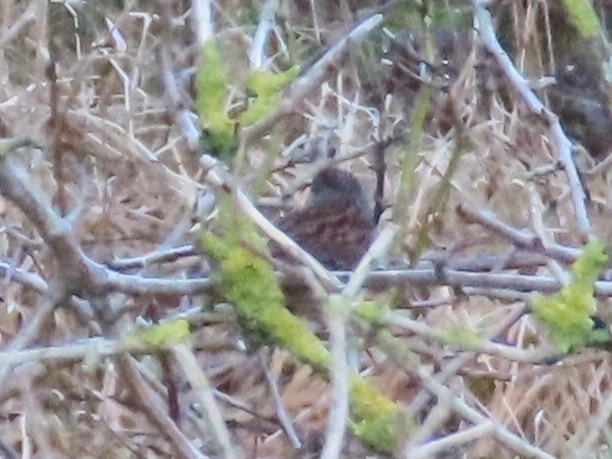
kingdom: Animalia
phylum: Chordata
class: Aves
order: Passeriformes
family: Prunellidae
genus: Prunella
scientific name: Prunella modularis
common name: Jernspurv
